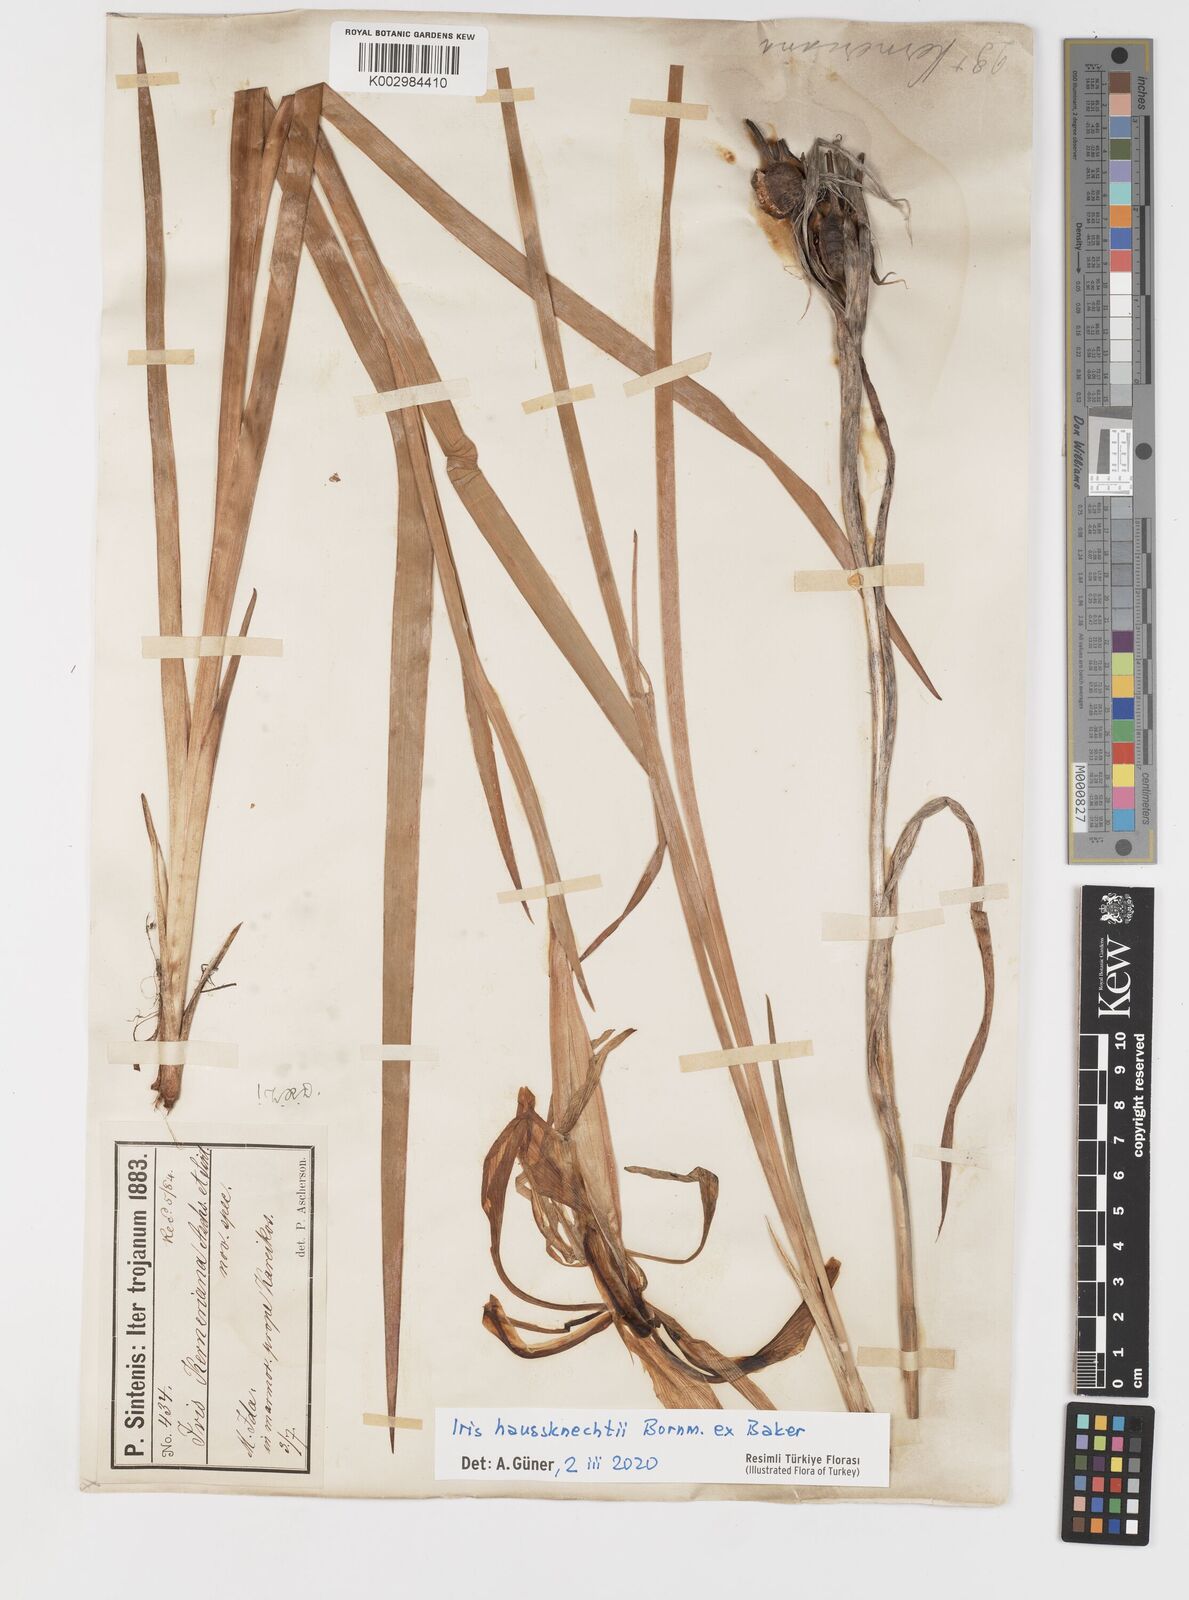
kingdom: Plantae
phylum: Tracheophyta
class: Liliopsida
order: Asparagales
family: Iridaceae
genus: Iris
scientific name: Iris haussknechtii
